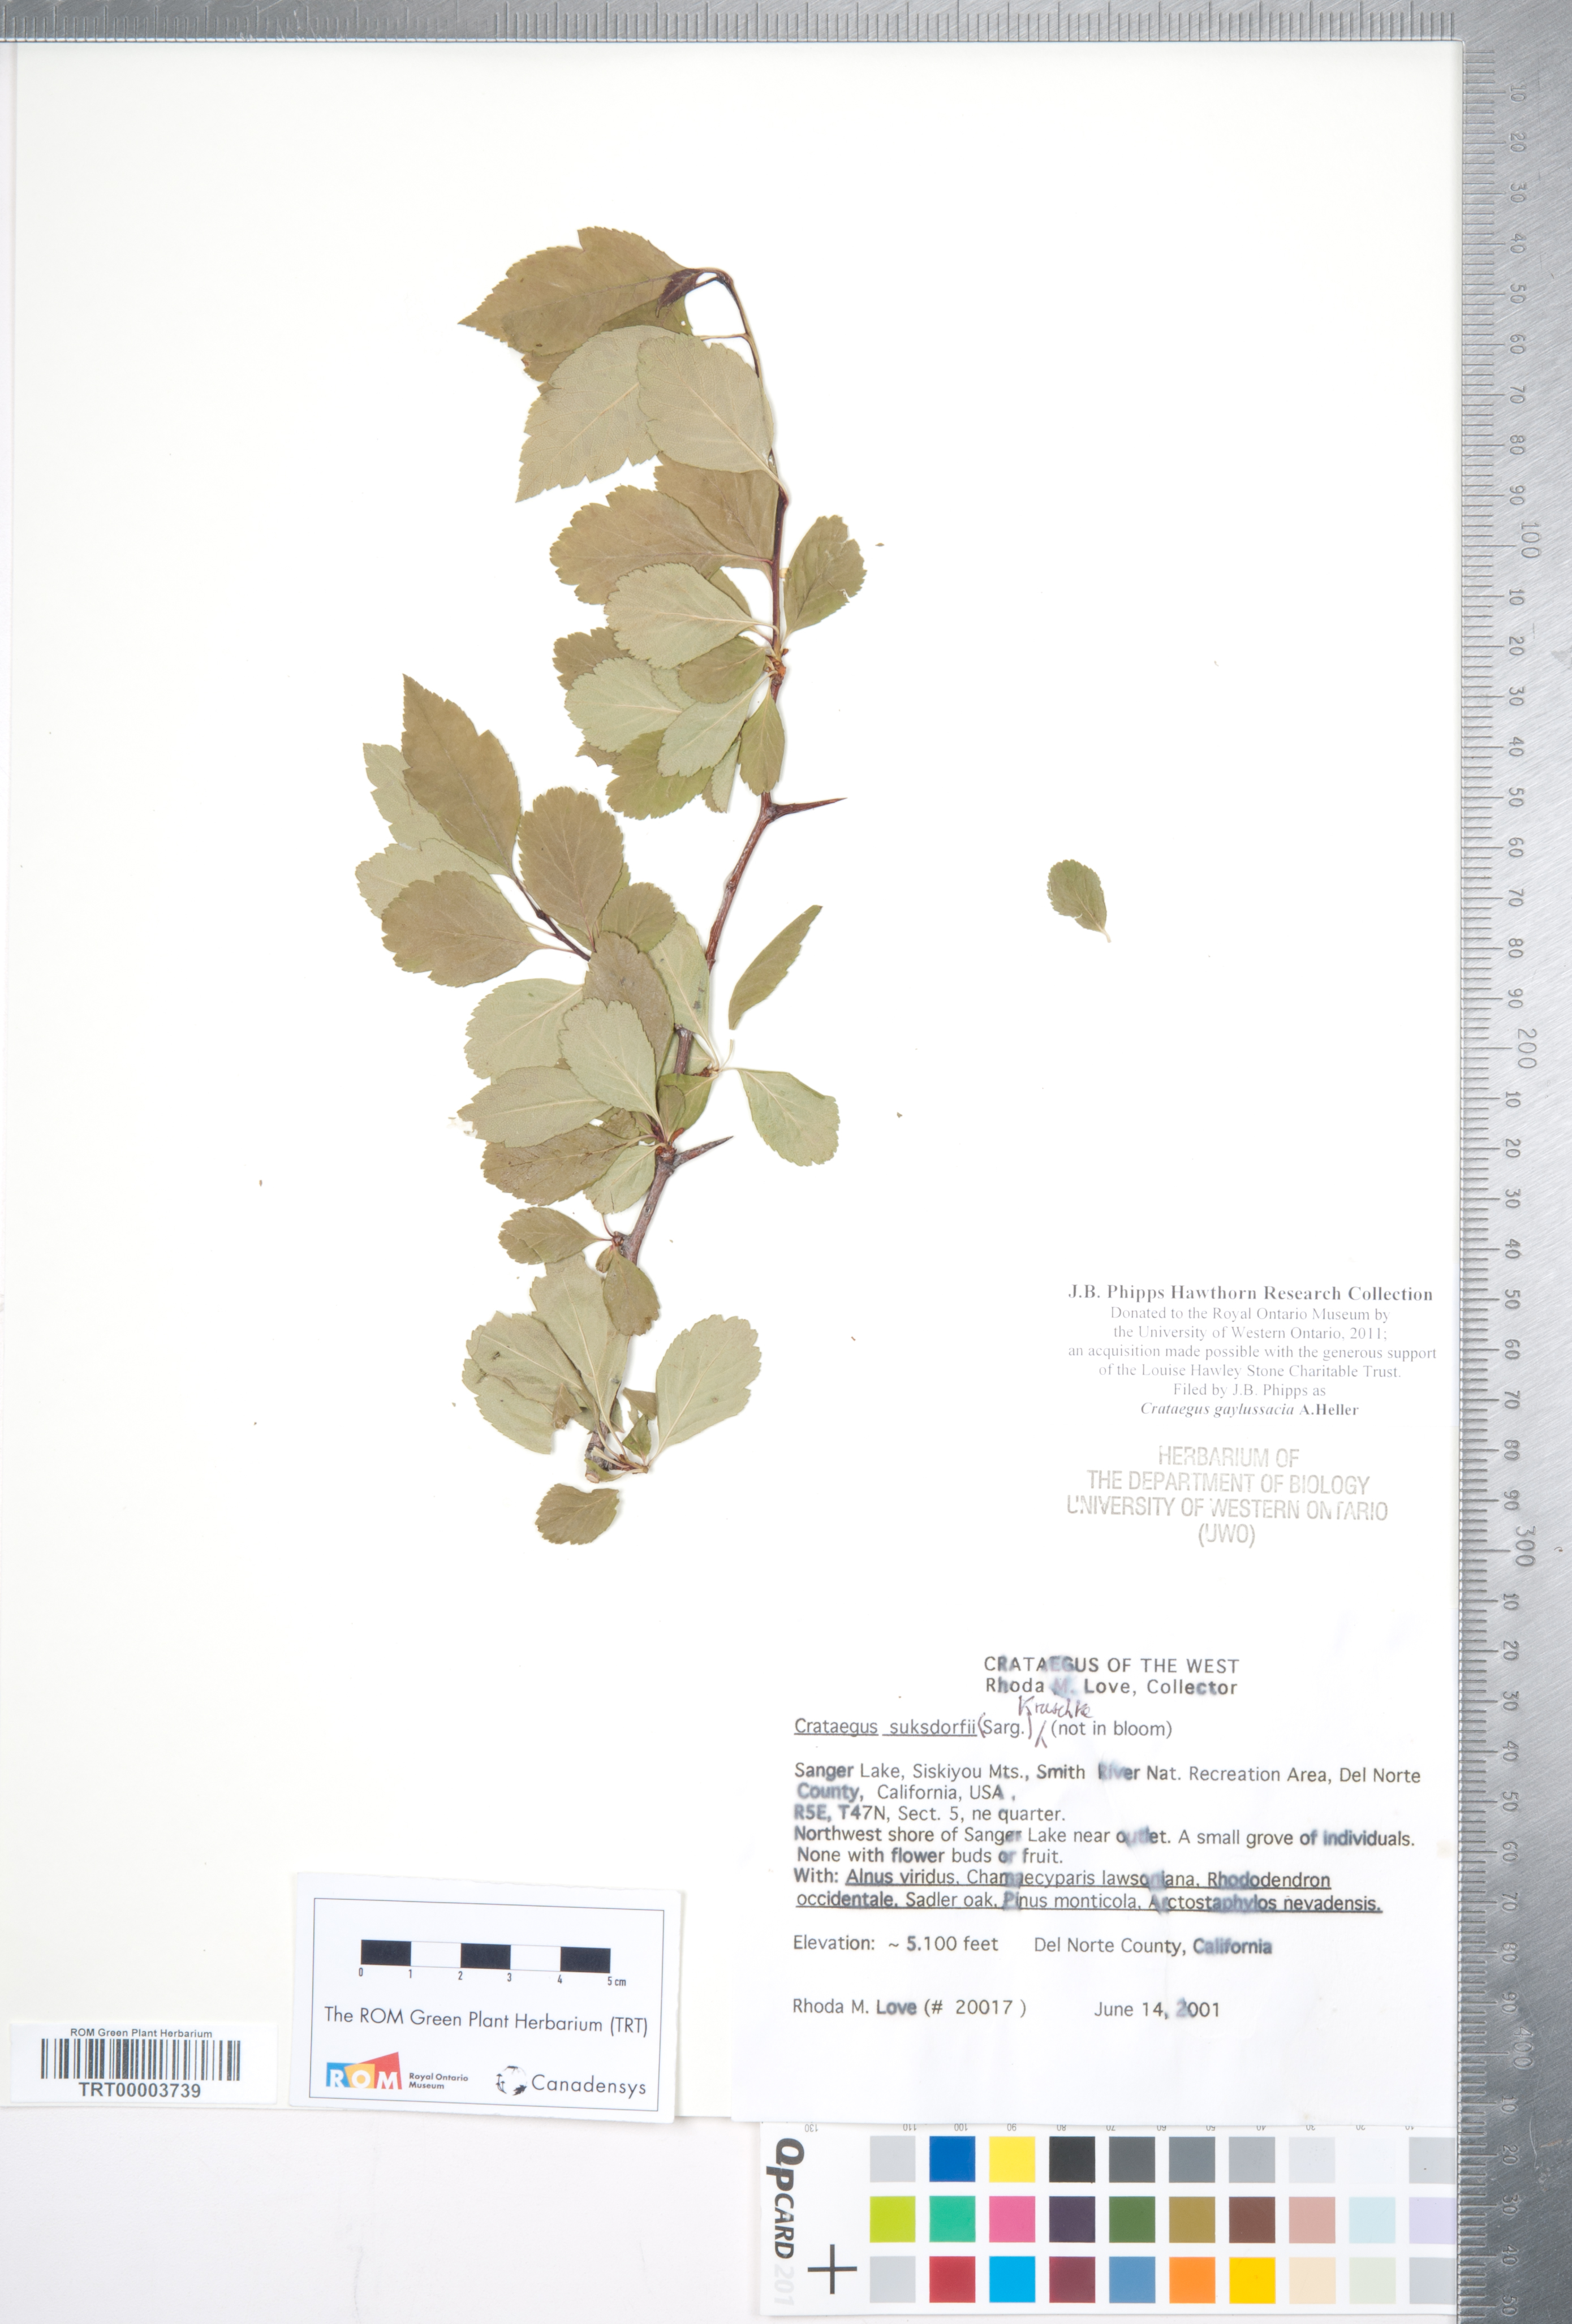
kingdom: Plantae
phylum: Tracheophyta
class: Magnoliopsida
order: Rosales
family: Rosaceae
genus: Crataegus
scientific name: Crataegus gaylussacia
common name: Huckleberry hawthorn
